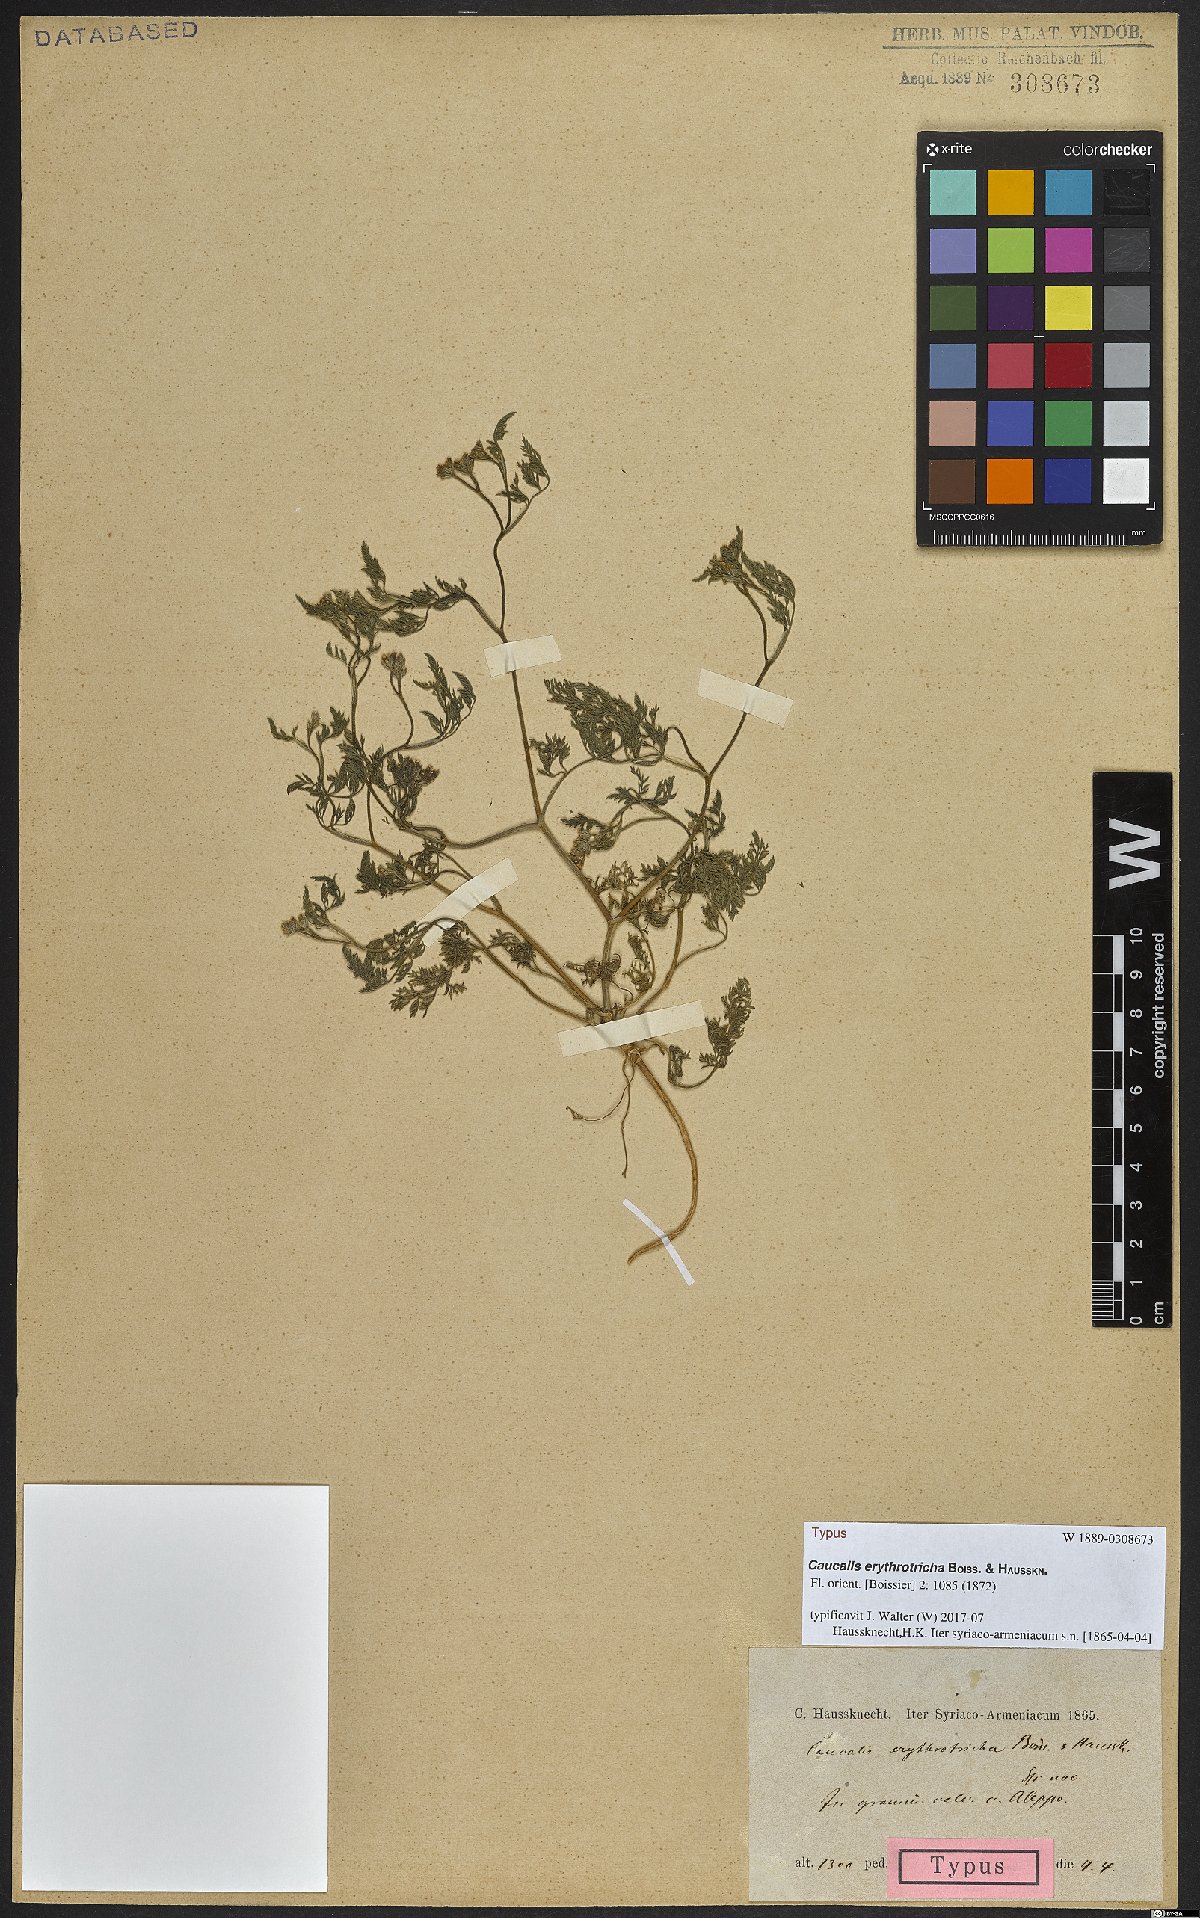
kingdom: Plantae
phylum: Tracheophyta
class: Magnoliopsida
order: Apiales
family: Apiaceae
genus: Torilis
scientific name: Torilis leptophylla
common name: Bristlefruit hedgeparsley
